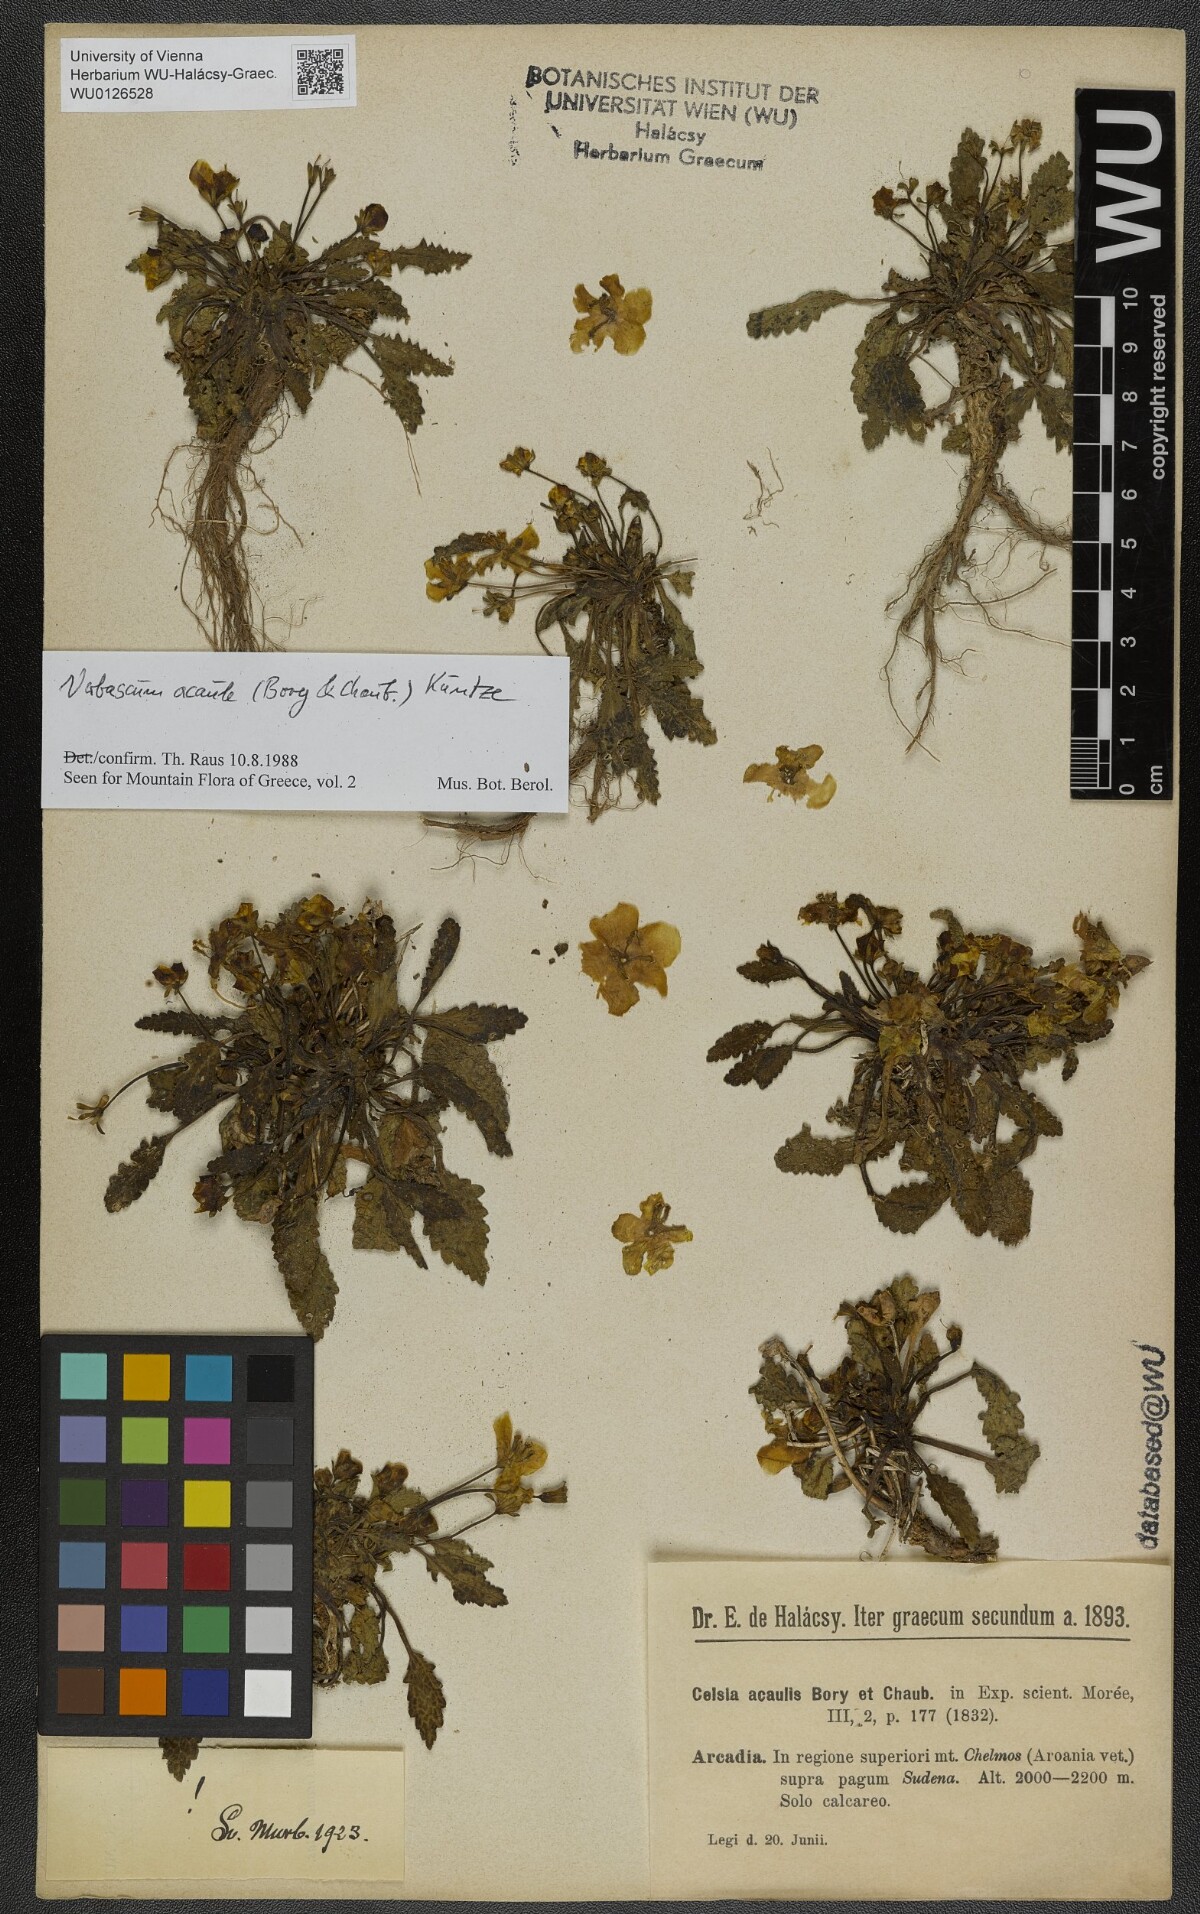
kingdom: Plantae
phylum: Tracheophyta
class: Magnoliopsida
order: Lamiales
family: Scrophulariaceae
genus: Verbascum
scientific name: Verbascum acaule
